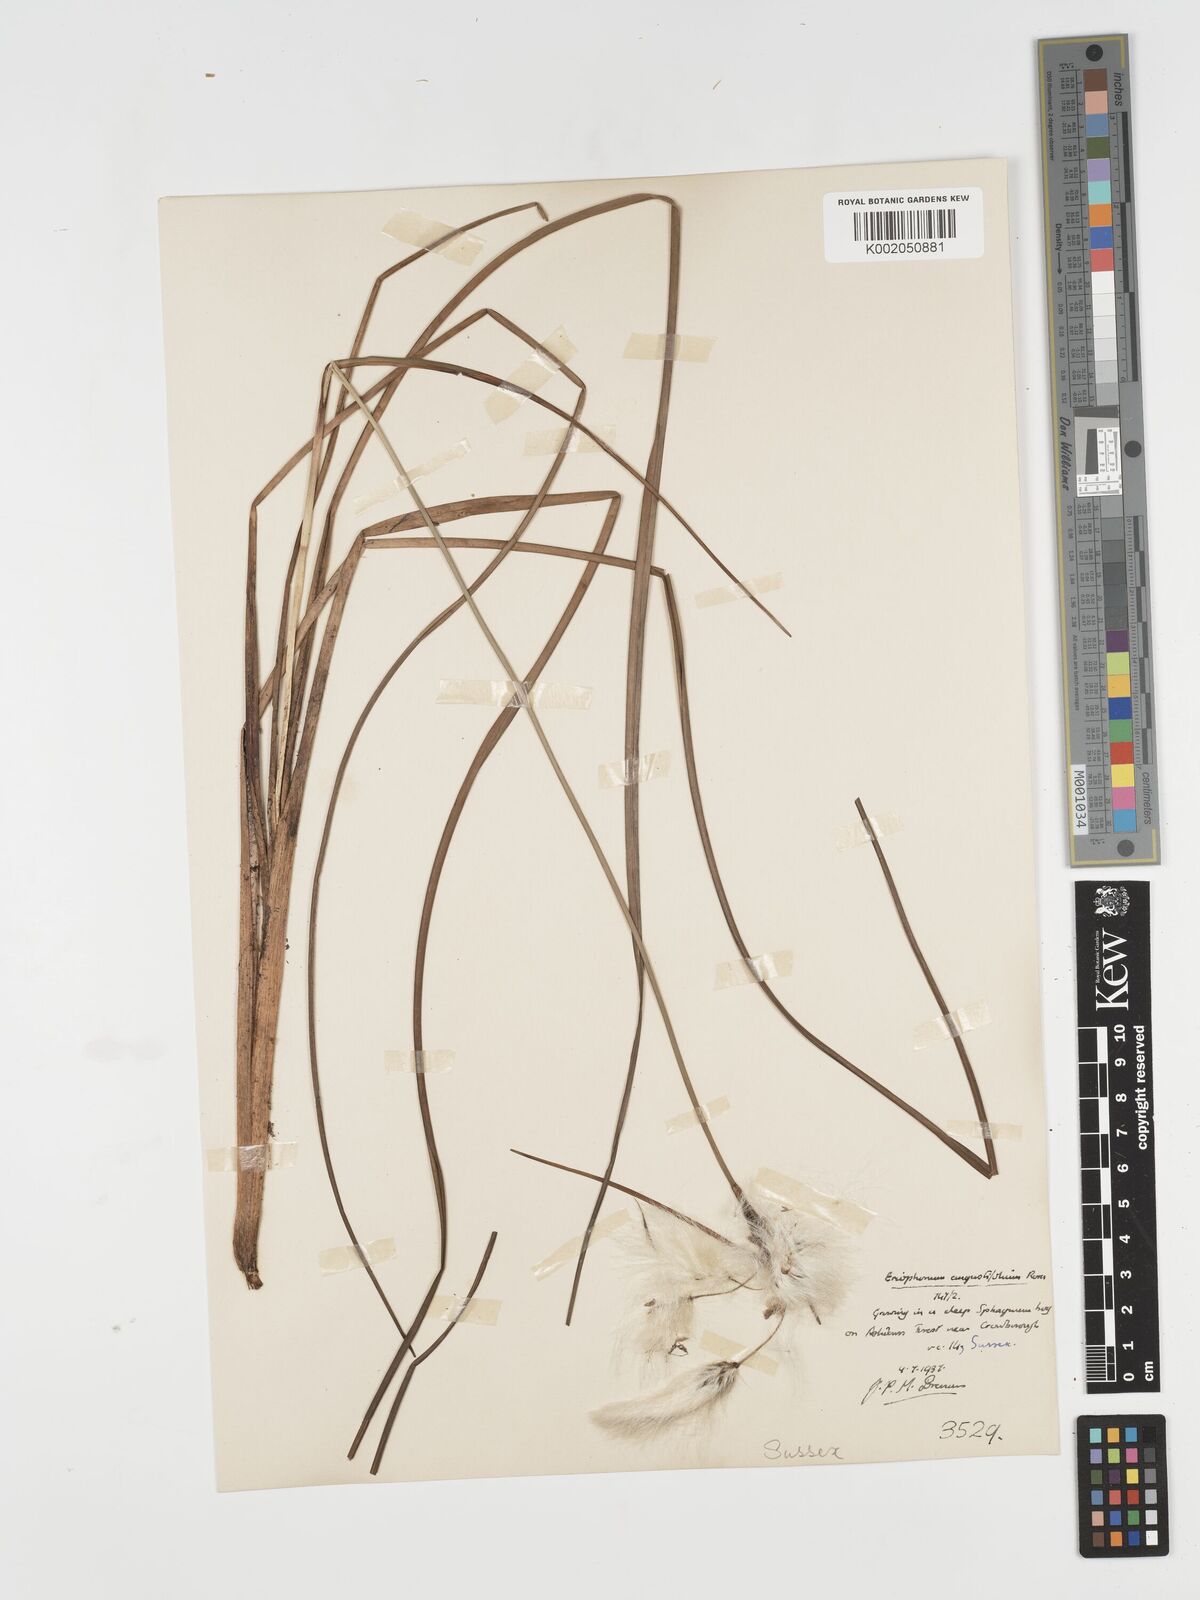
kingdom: Plantae
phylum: Tracheophyta
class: Liliopsida
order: Poales
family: Cyperaceae
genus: Eriophorum
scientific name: Eriophorum angustifolium
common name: Common cottongrass
